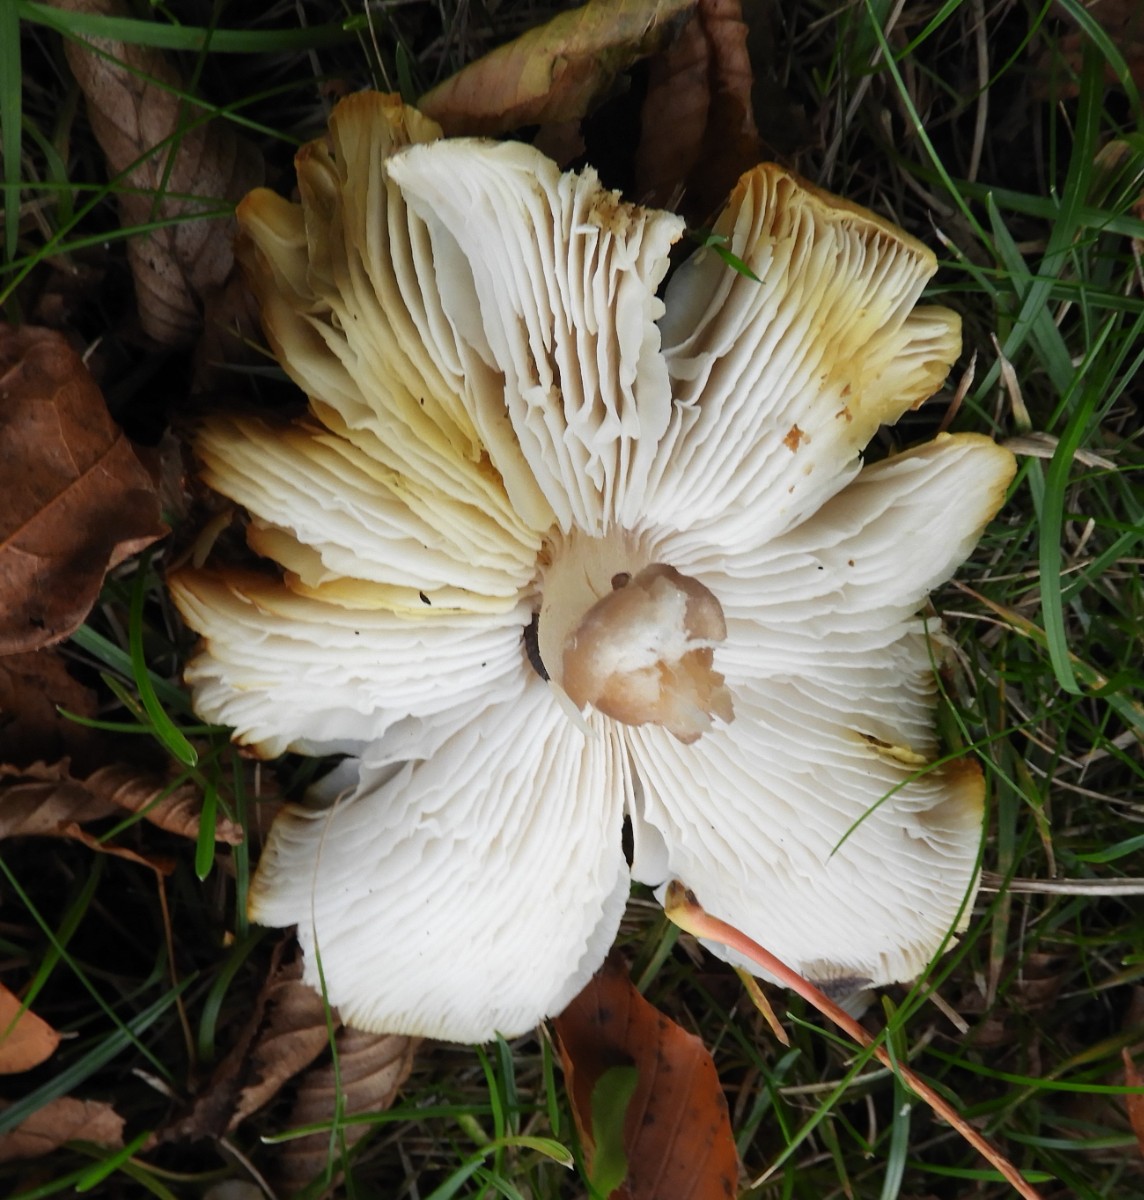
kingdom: Fungi
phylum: Basidiomycota
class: Agaricomycetes
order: Agaricales
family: Tricholomataceae
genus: Tricholoma
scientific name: Tricholoma scalpturatum
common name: gulplettet ridderhat
